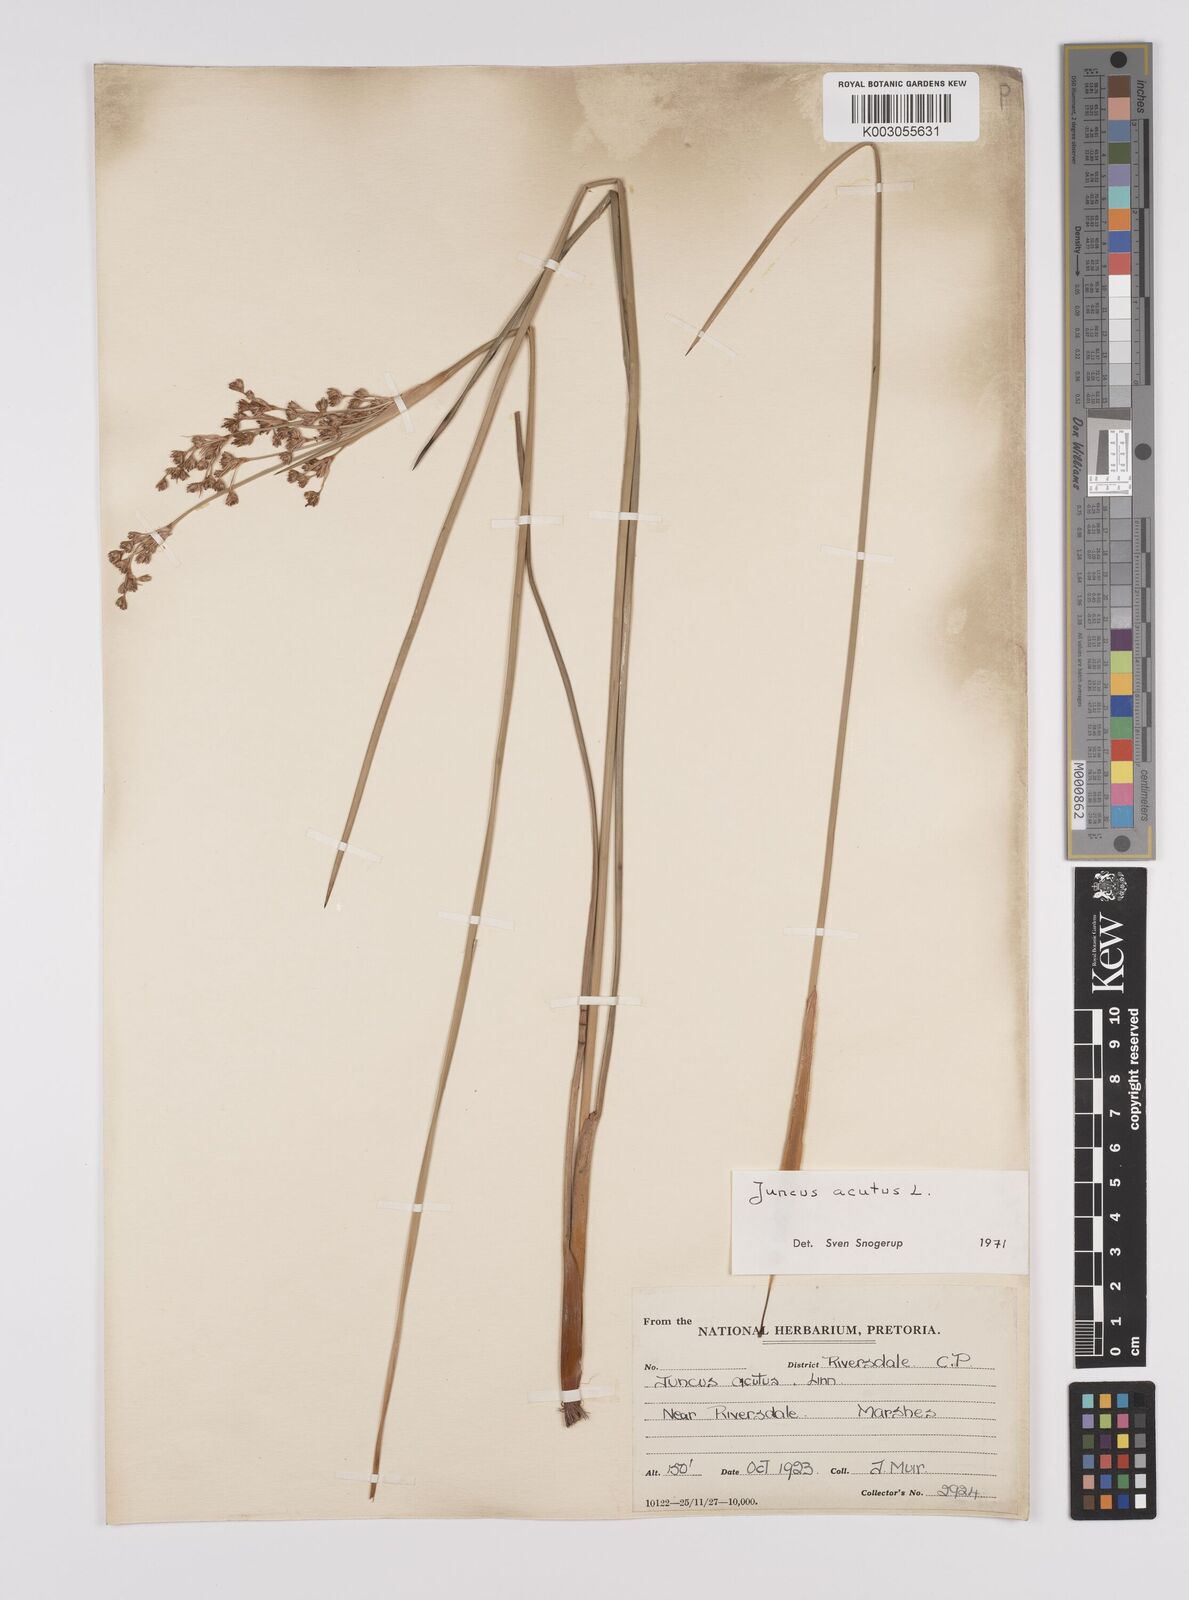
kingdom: Plantae
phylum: Tracheophyta
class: Liliopsida
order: Poales
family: Juncaceae
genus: Juncus
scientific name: Juncus acutus
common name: Sharp rush
